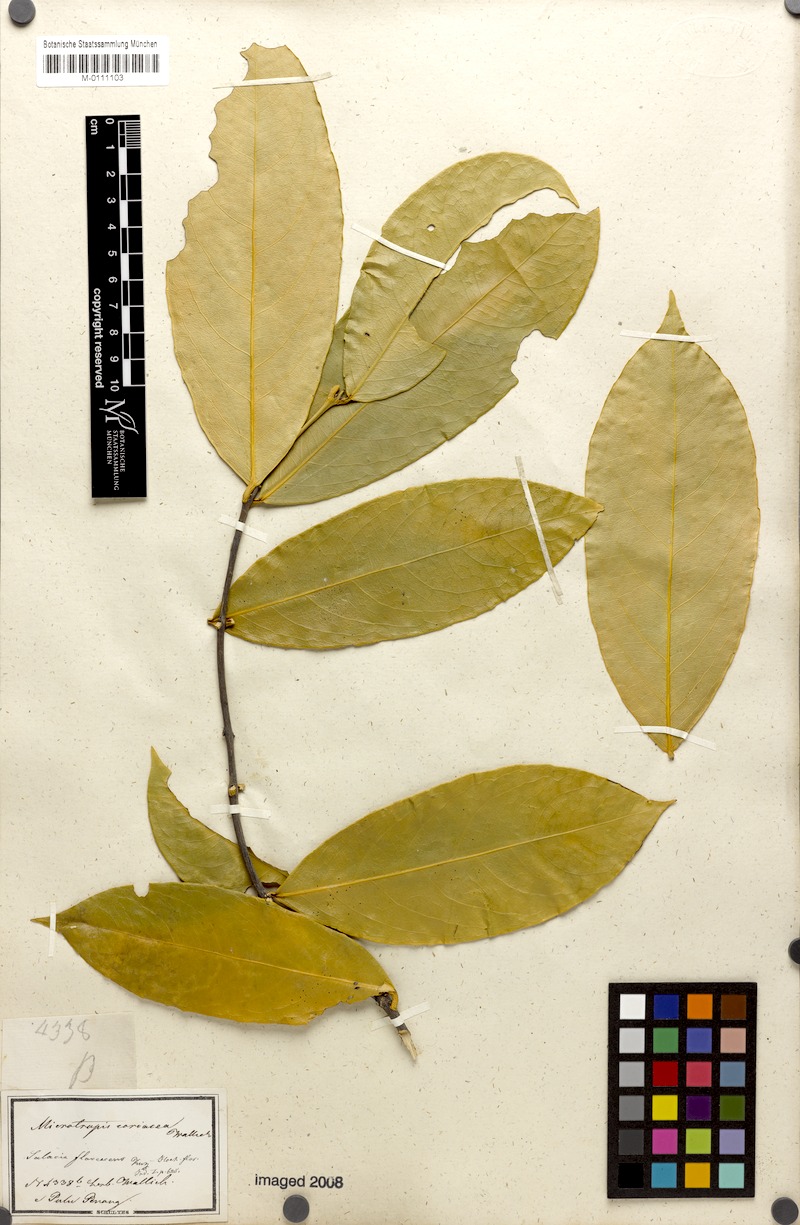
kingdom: Plantae
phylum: Tracheophyta
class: Magnoliopsida
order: Celastrales
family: Celastraceae
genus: Salacia
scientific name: Salacia macrophylla
